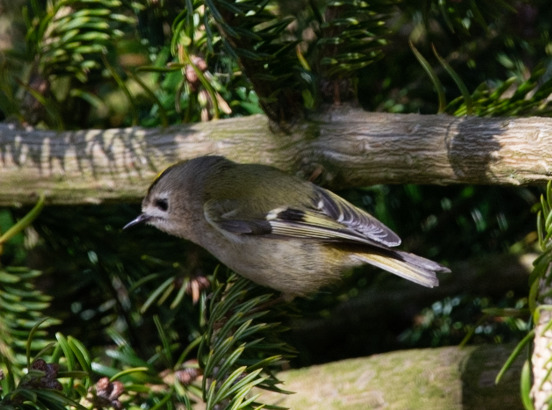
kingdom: Animalia
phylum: Chordata
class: Aves
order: Passeriformes
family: Regulidae
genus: Regulus
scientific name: Regulus regulus
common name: Fuglekonge
